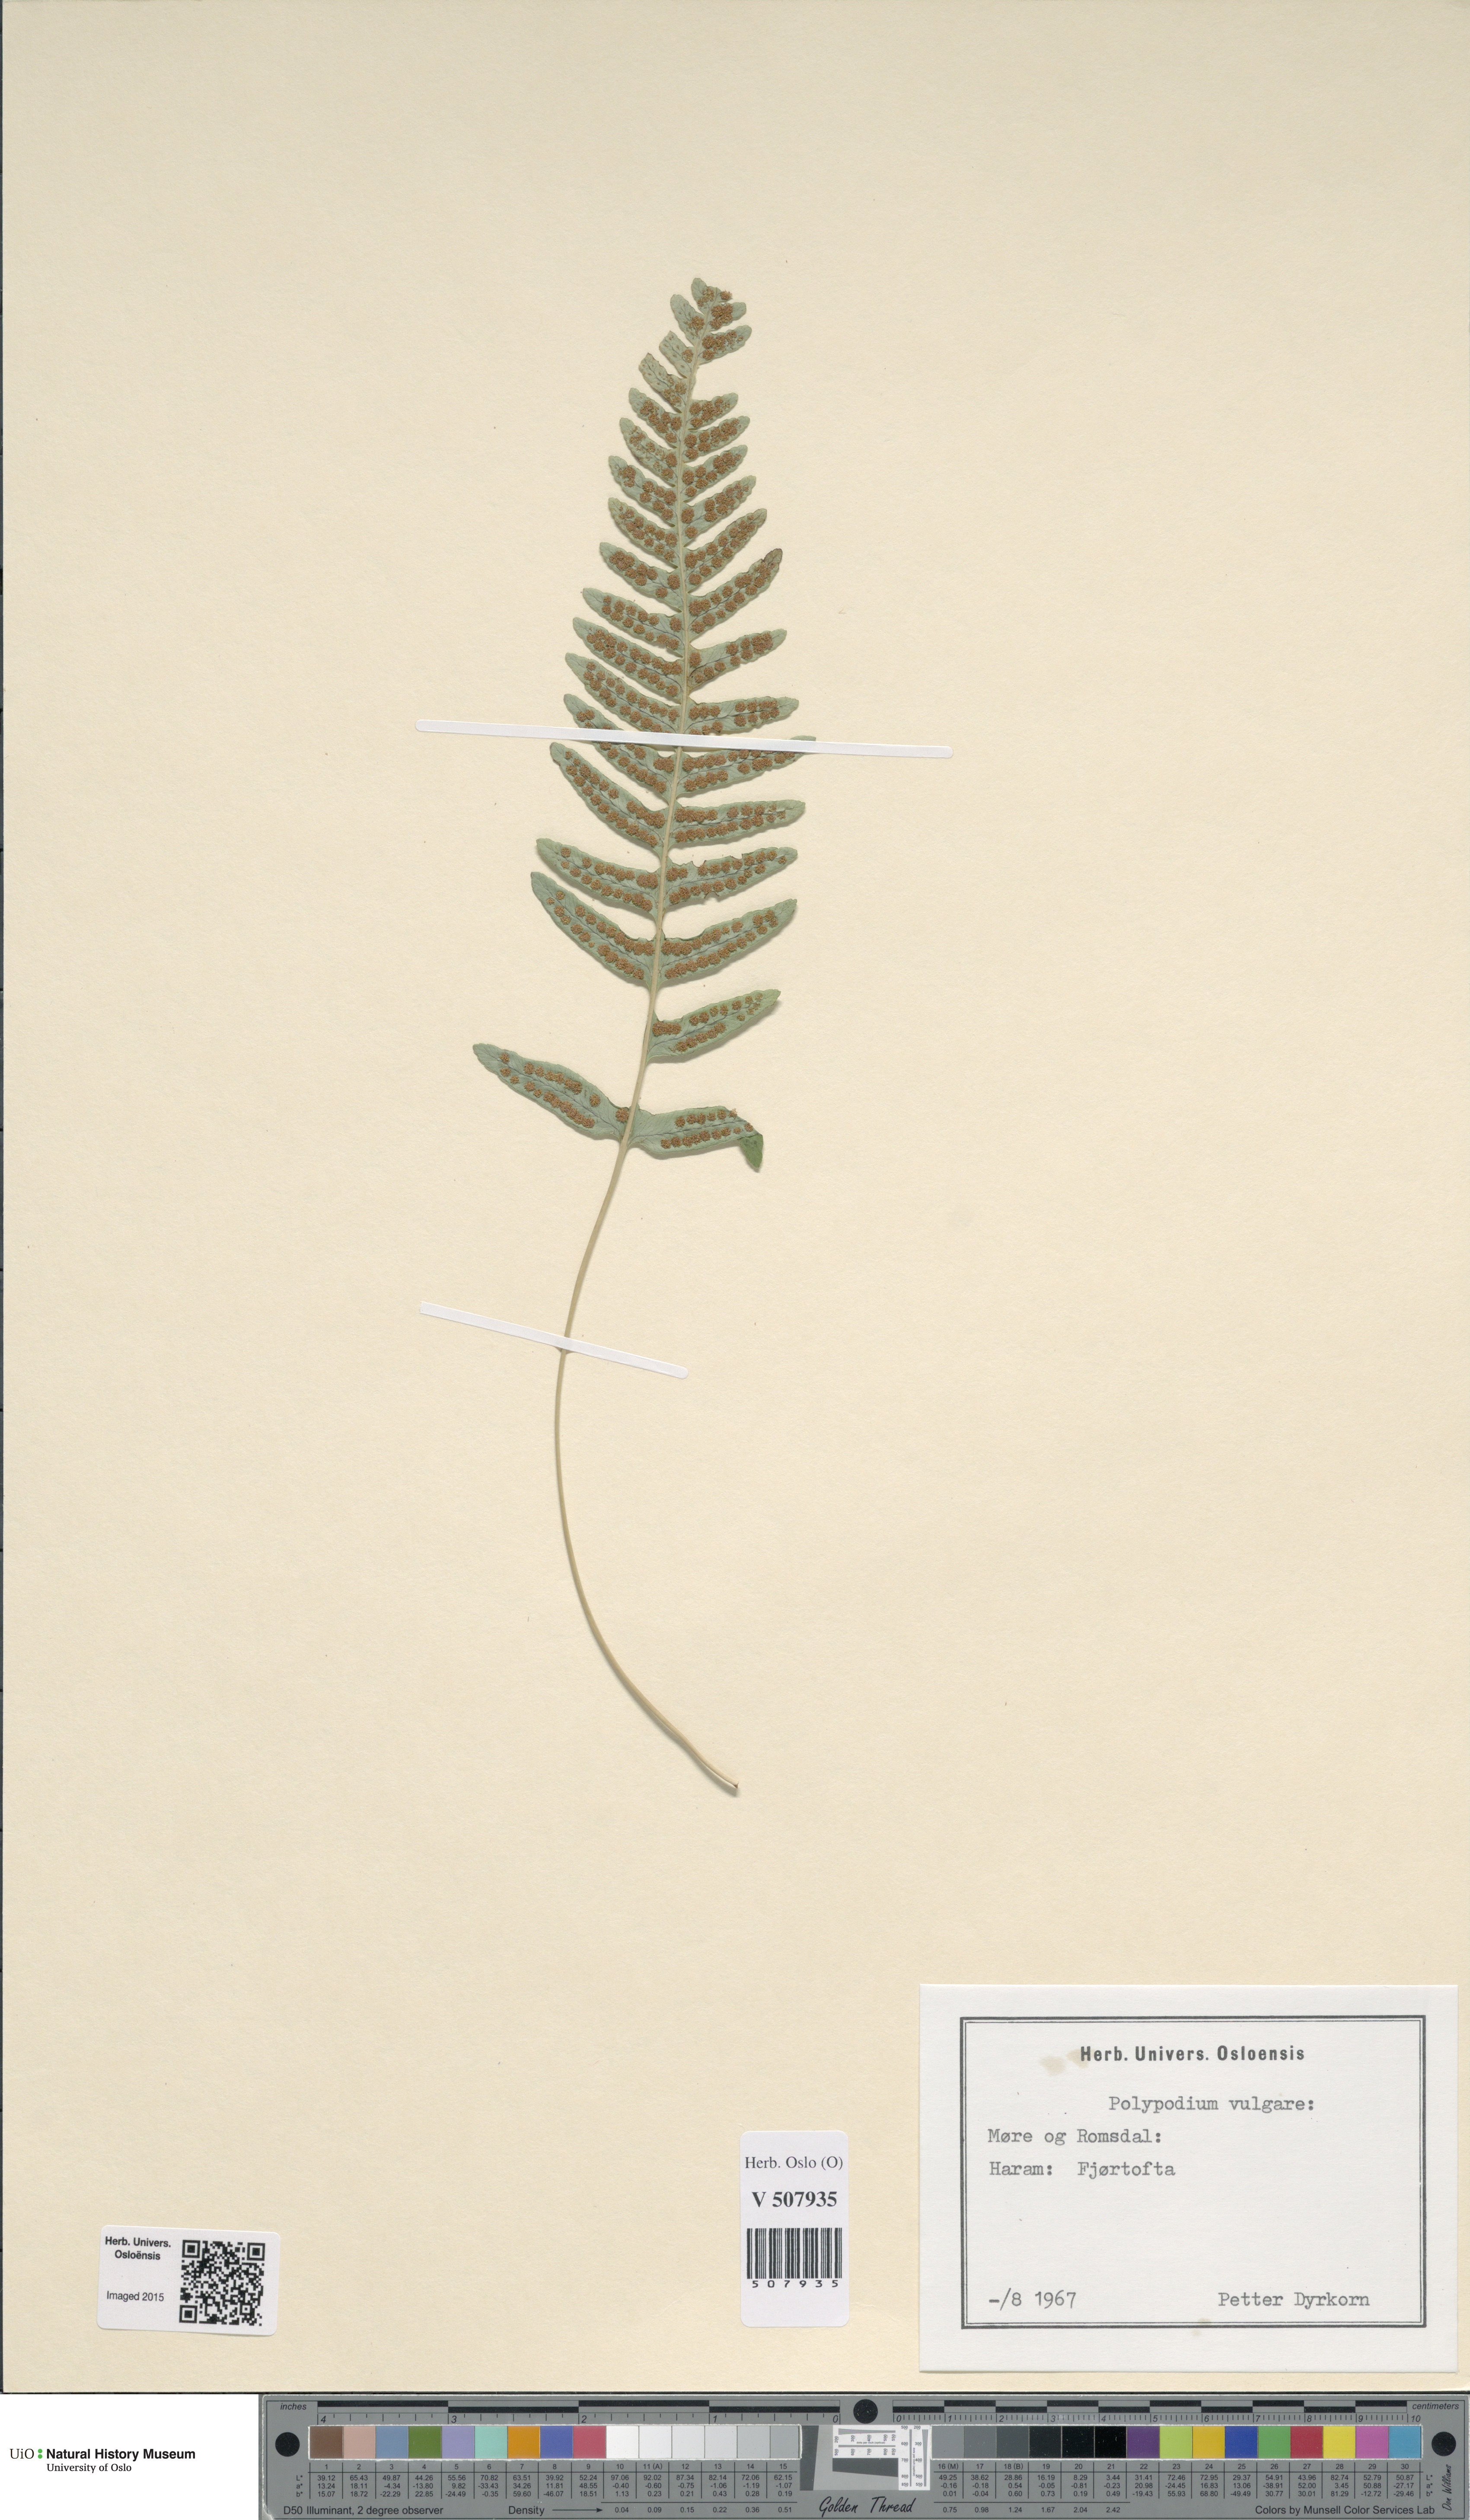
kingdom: Plantae
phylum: Tracheophyta
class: Polypodiopsida
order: Polypodiales
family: Polypodiaceae
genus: Polypodium
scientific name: Polypodium vulgare
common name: Common polypody
